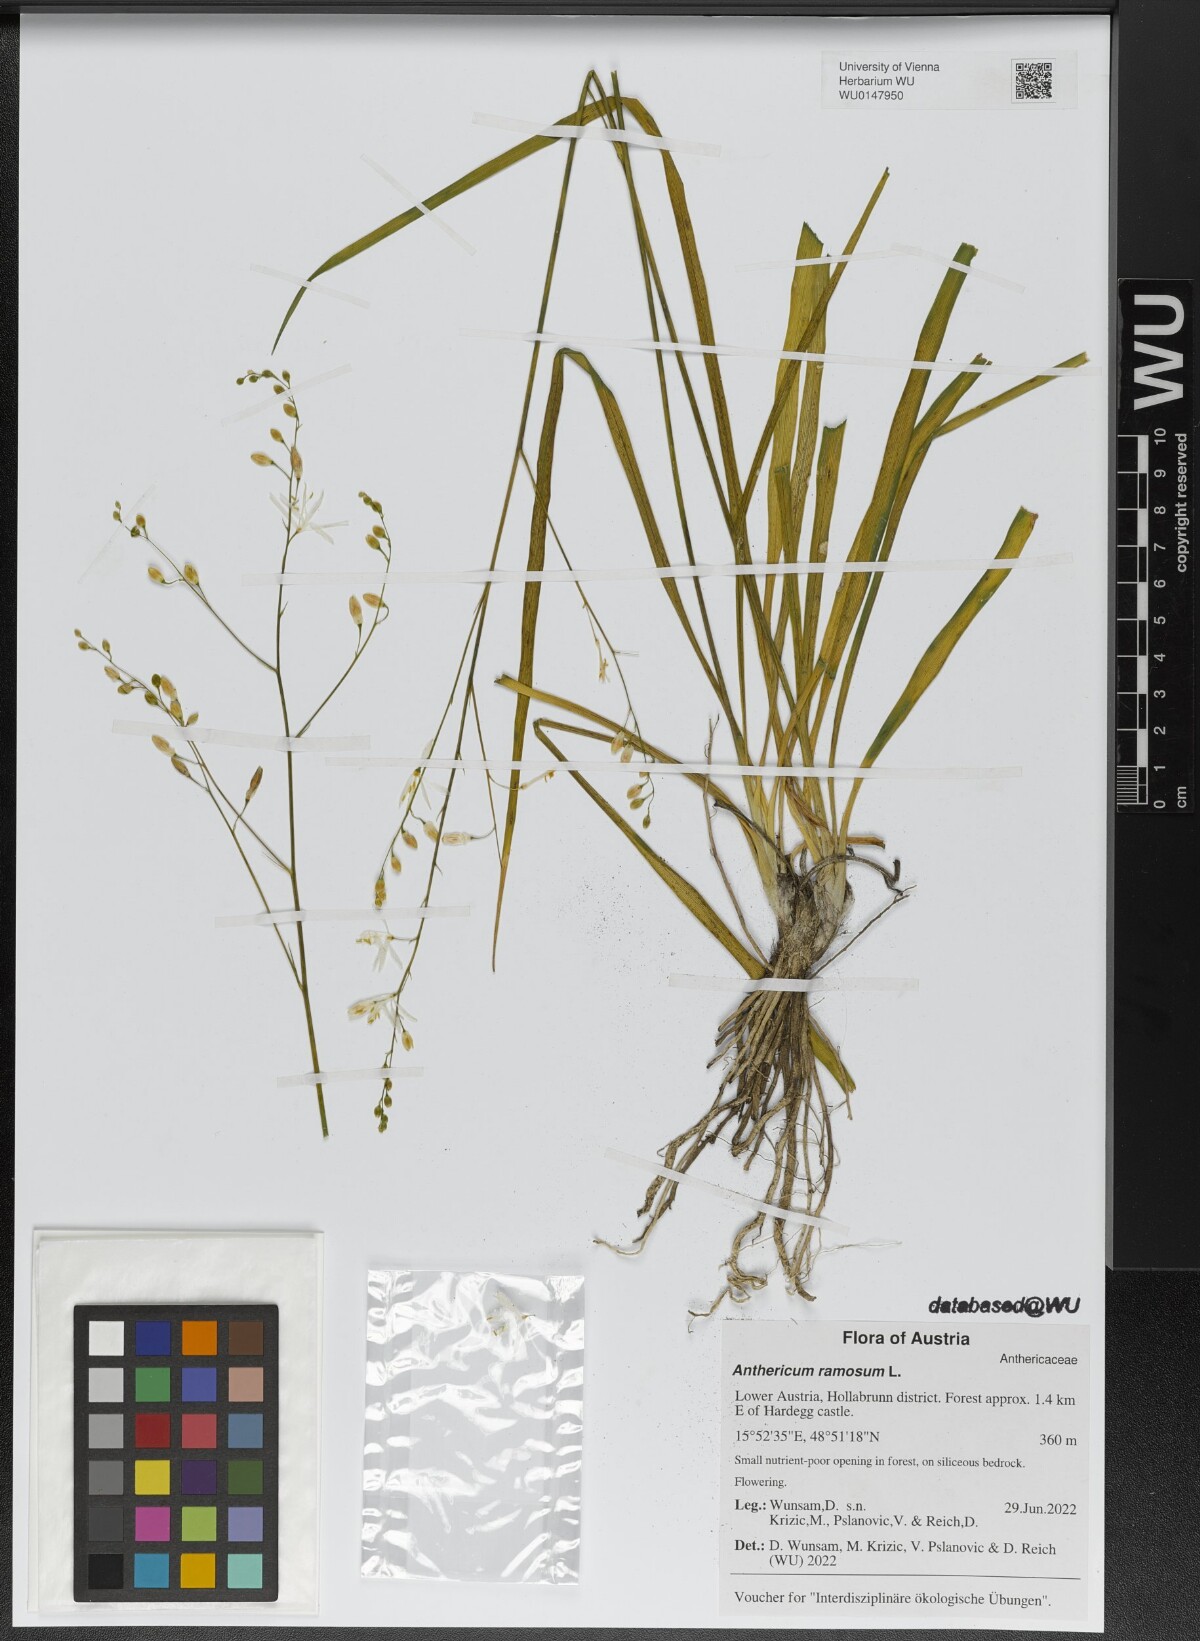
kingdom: Plantae
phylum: Tracheophyta
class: Liliopsida
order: Asparagales
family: Asparagaceae
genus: Anthericum
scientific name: Anthericum ramosum
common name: Branched st. bernard's-lily
